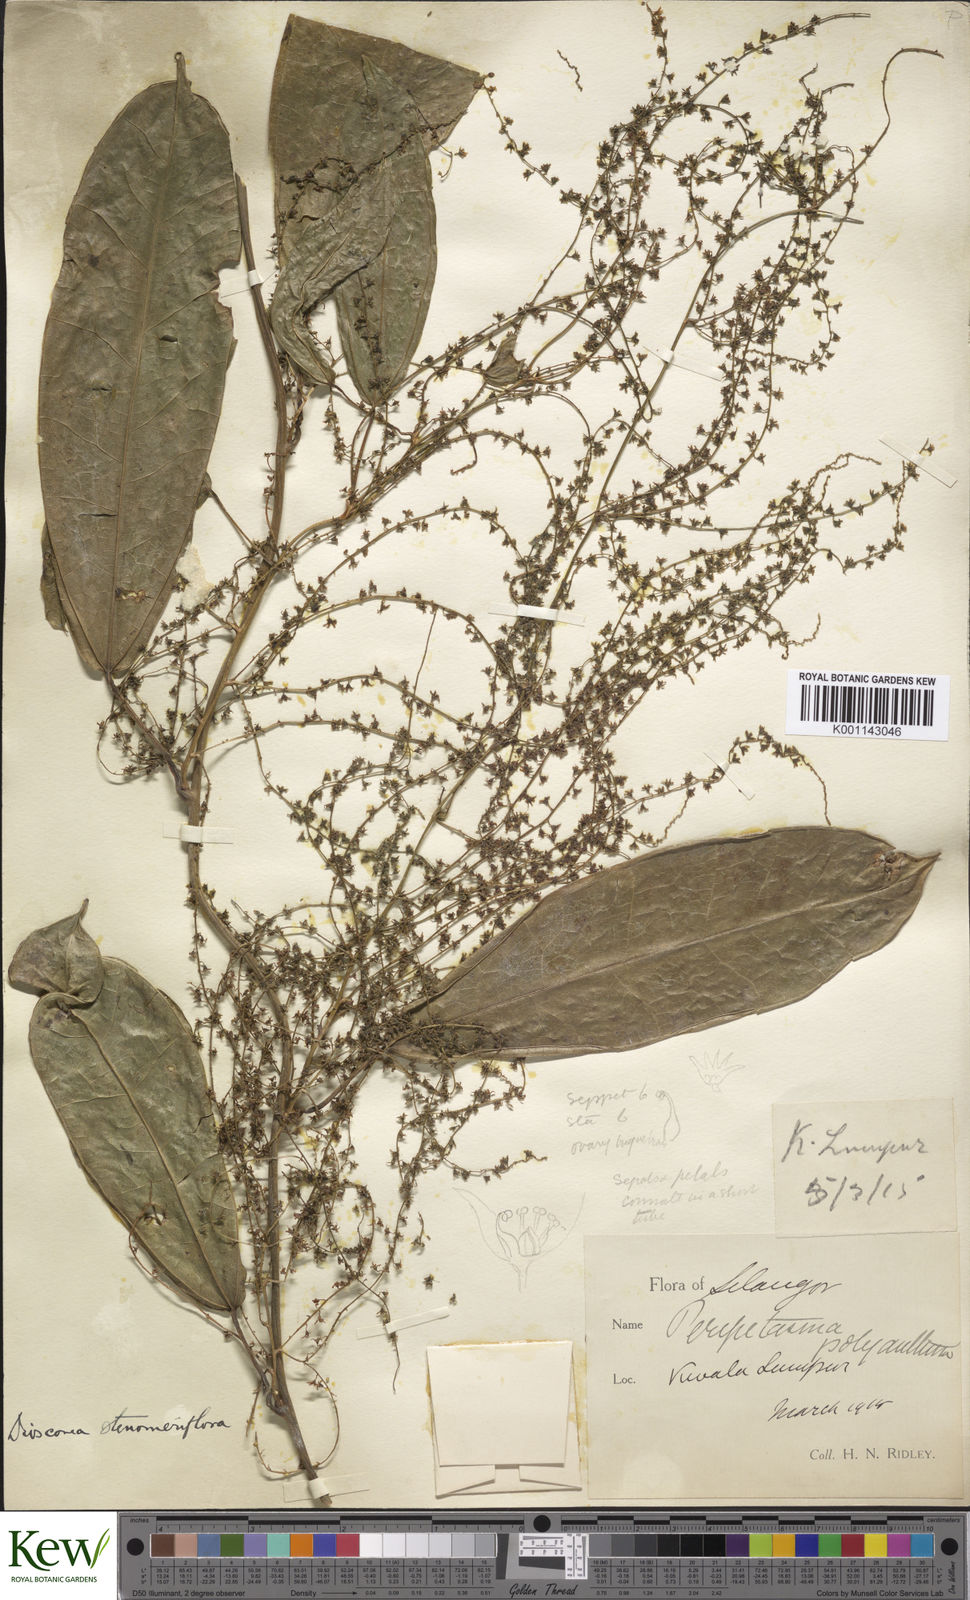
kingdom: Plantae
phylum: Tracheophyta
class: Liliopsida
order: Dioscoreales
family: Dioscoreaceae
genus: Dioscorea
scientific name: Dioscorea stenomeriflora
